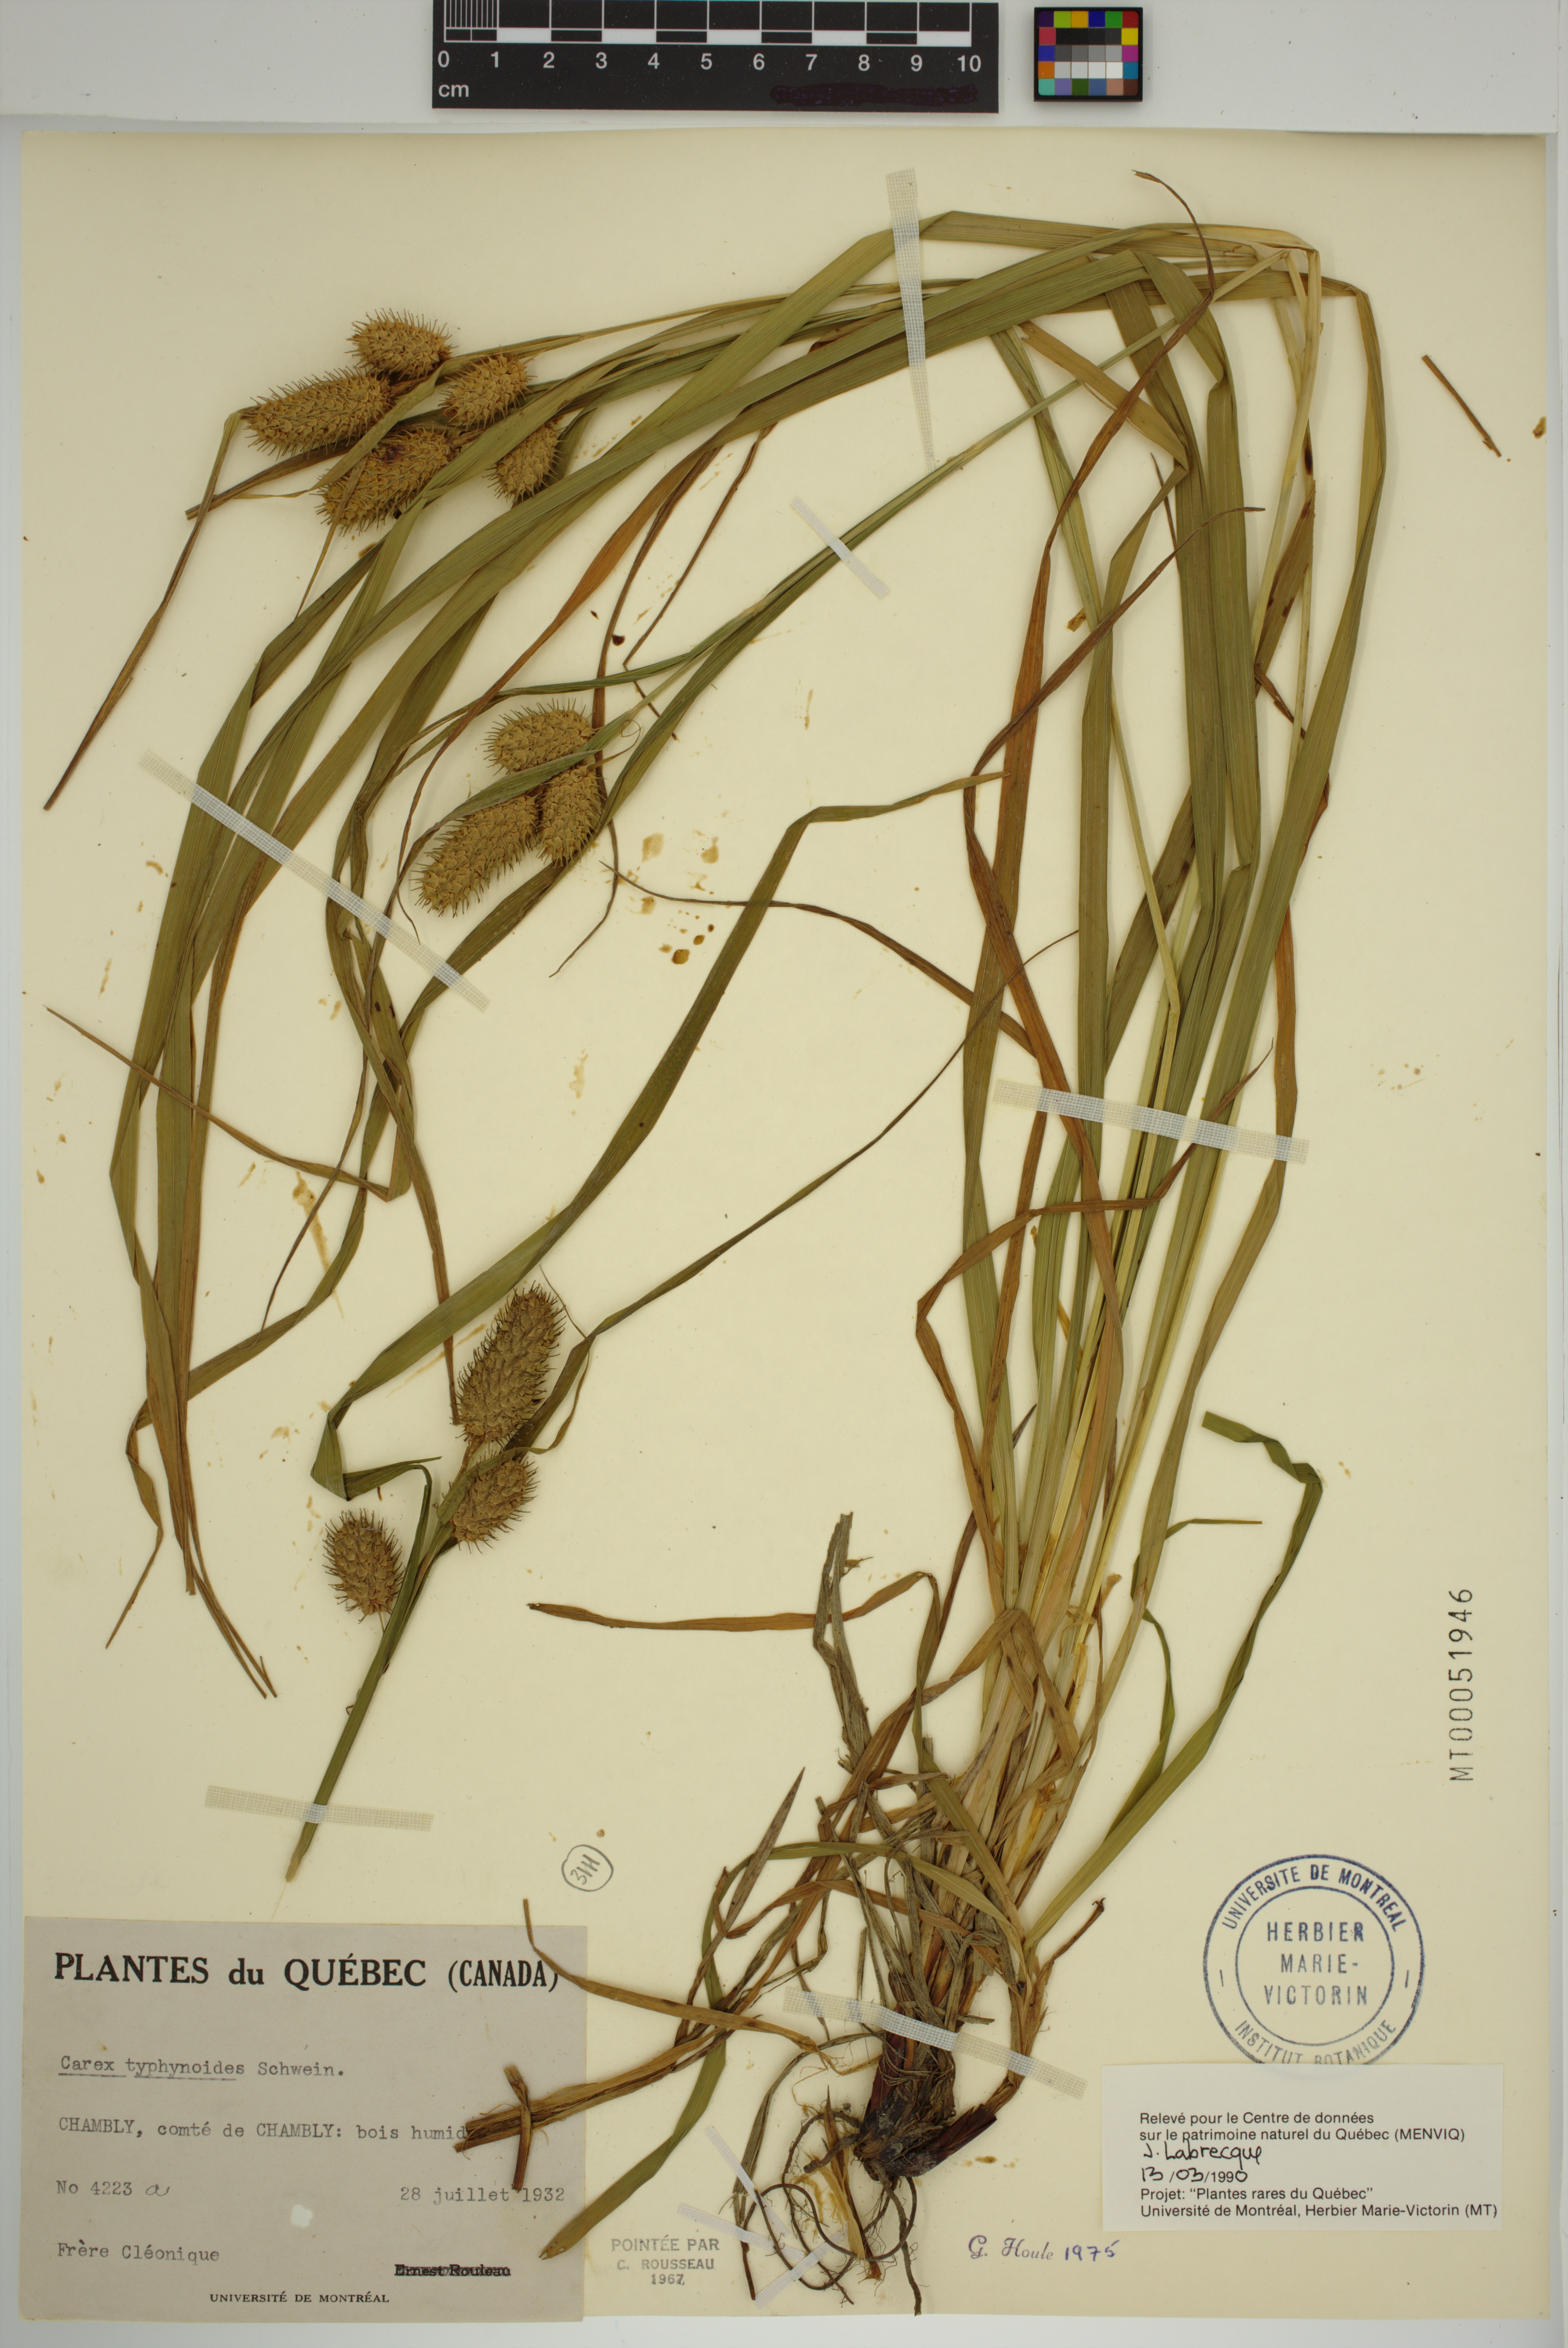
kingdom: Plantae
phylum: Tracheophyta
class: Liliopsida
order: Poales
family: Cyperaceae
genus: Carex
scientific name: Carex typhina
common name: Cattail sedge
